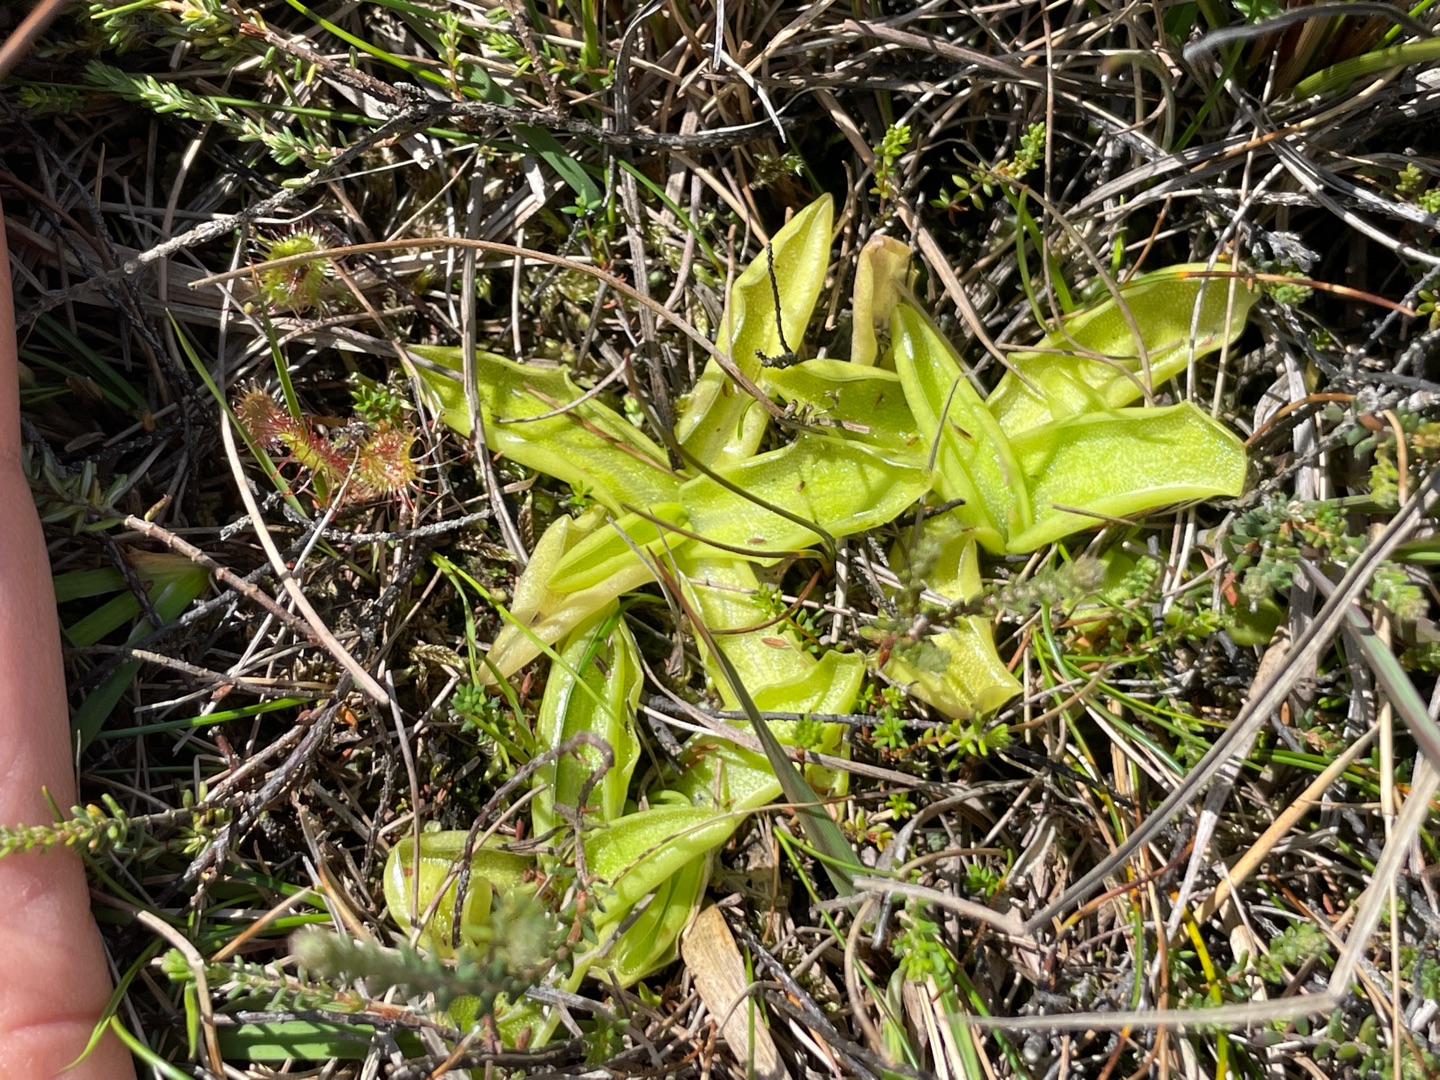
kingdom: Plantae
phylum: Tracheophyta
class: Magnoliopsida
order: Lamiales
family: Lentibulariaceae
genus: Pinguicula
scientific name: Pinguicula vulgaris
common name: Vibefedt
